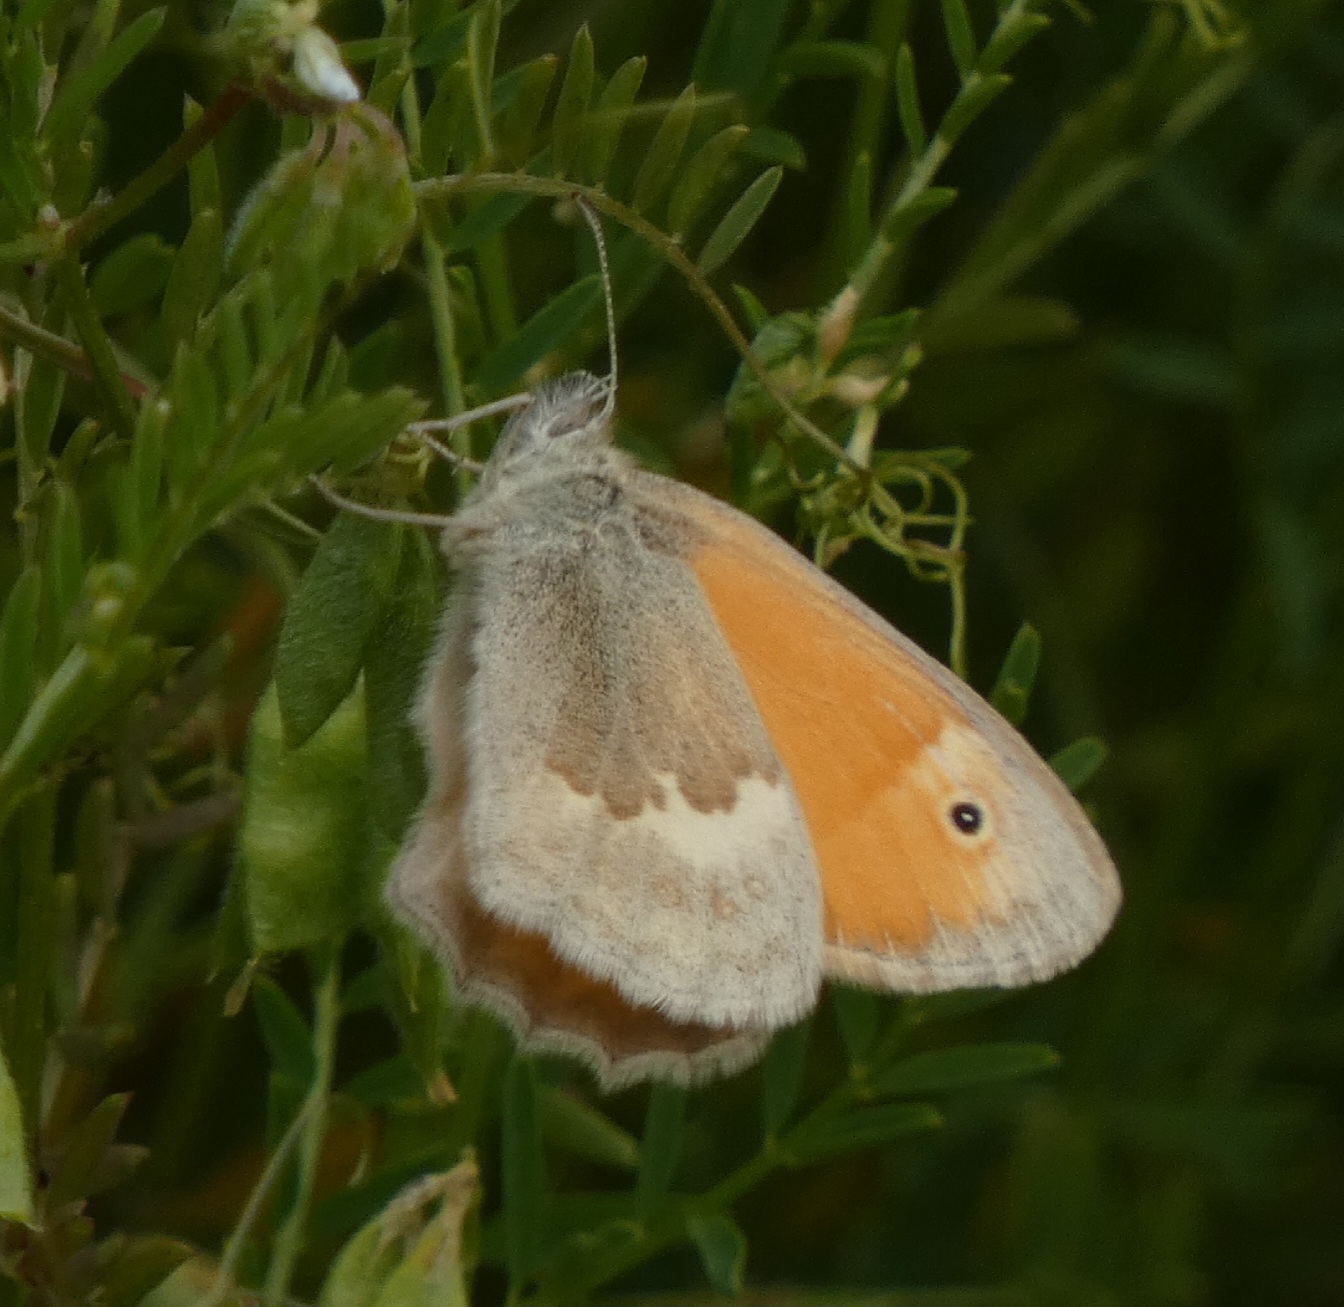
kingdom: Animalia
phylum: Arthropoda
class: Insecta
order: Lepidoptera
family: Nymphalidae
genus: Coenonympha
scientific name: Coenonympha pamphilus
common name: Okkergul randøje
